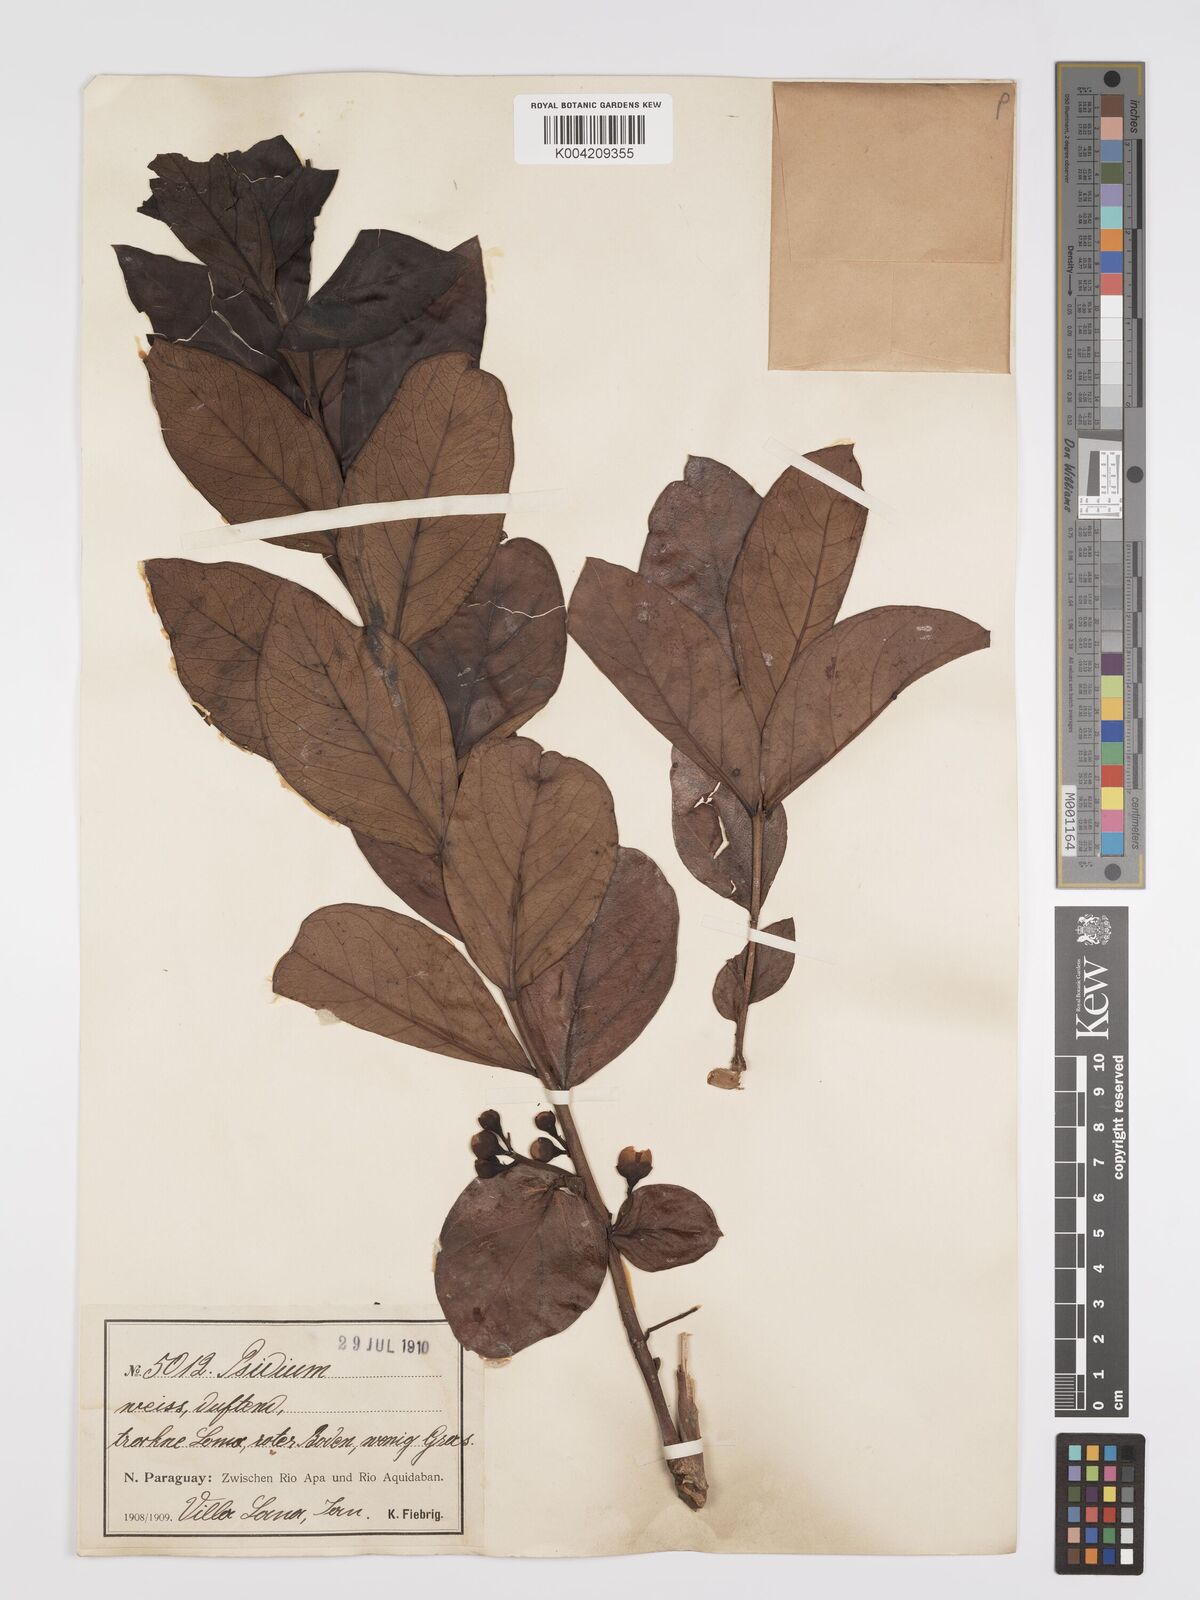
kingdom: Plantae
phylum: Tracheophyta
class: Magnoliopsida
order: Myrtales
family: Myrtaceae
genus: Psidium
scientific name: Psidium grandifolium
